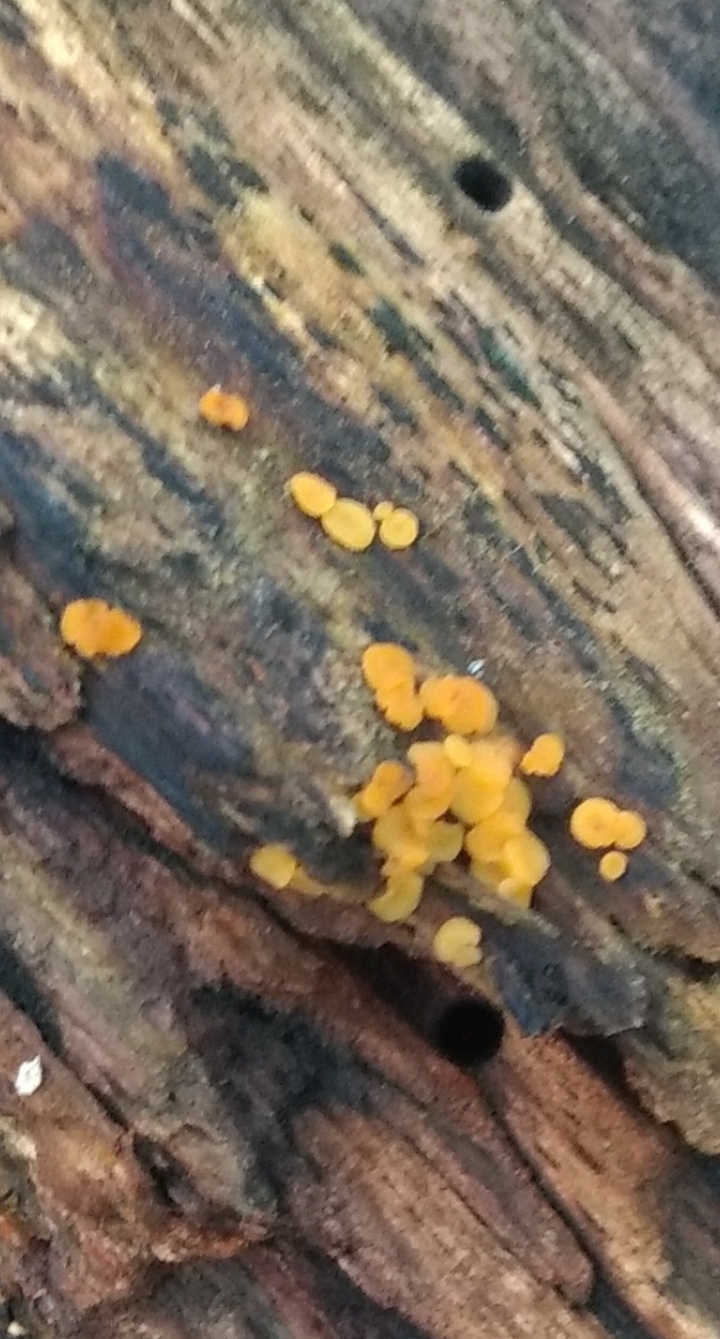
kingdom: Fungi
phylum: Ascomycota
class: Leotiomycetes
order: Helotiales
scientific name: Helotiales
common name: stilkskiveordenen
